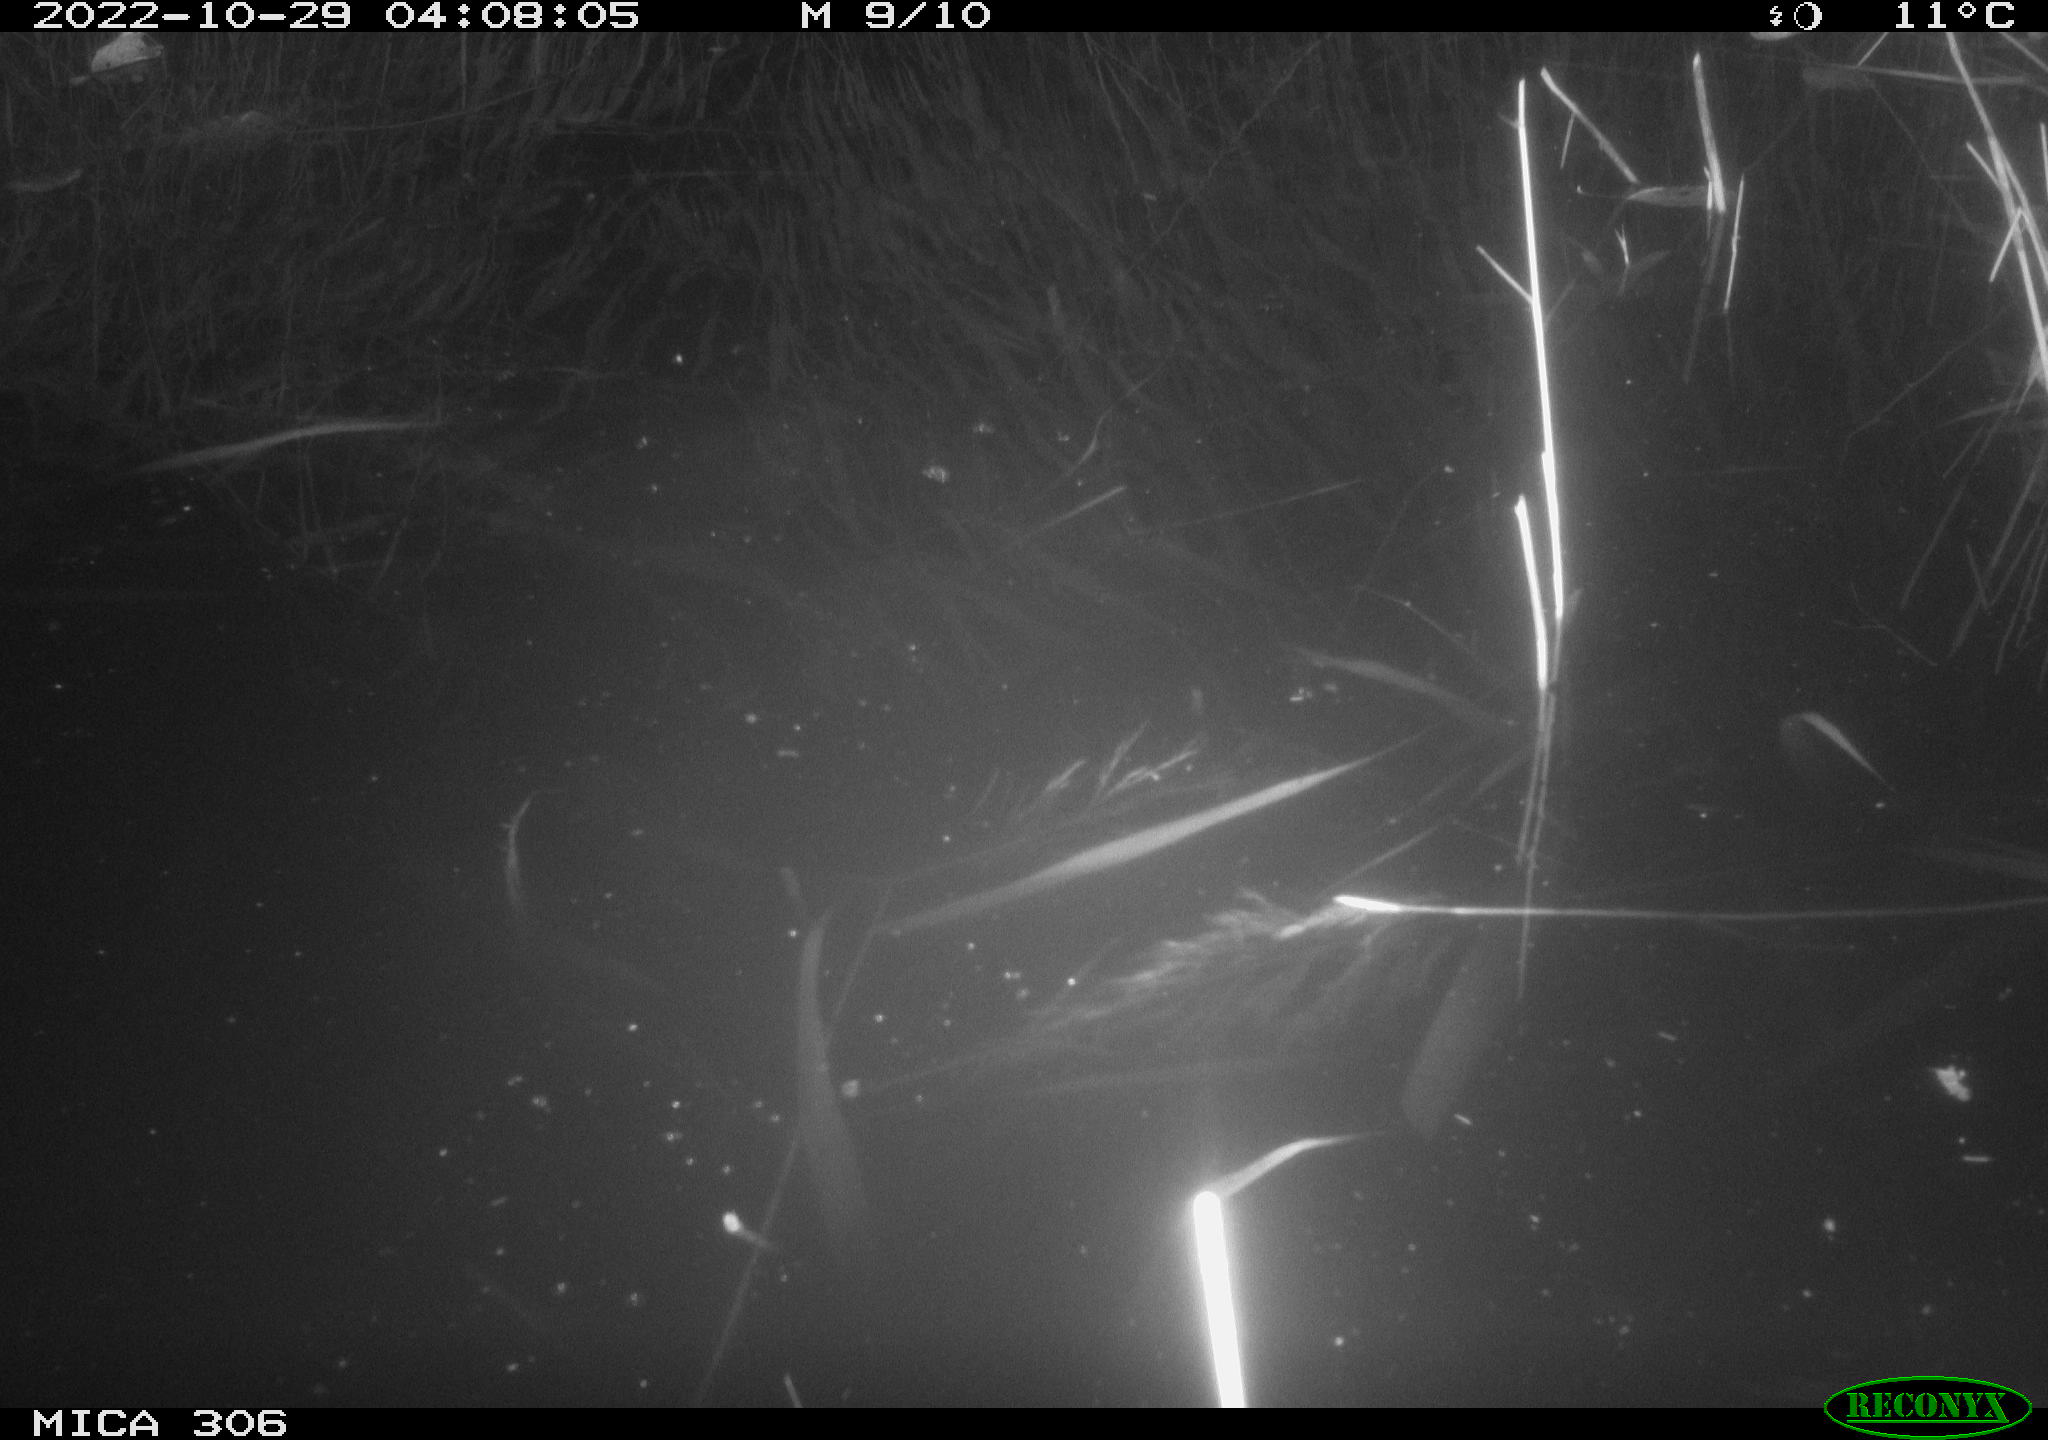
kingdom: Animalia
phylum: Chordata
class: Mammalia
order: Rodentia
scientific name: Rodentia
